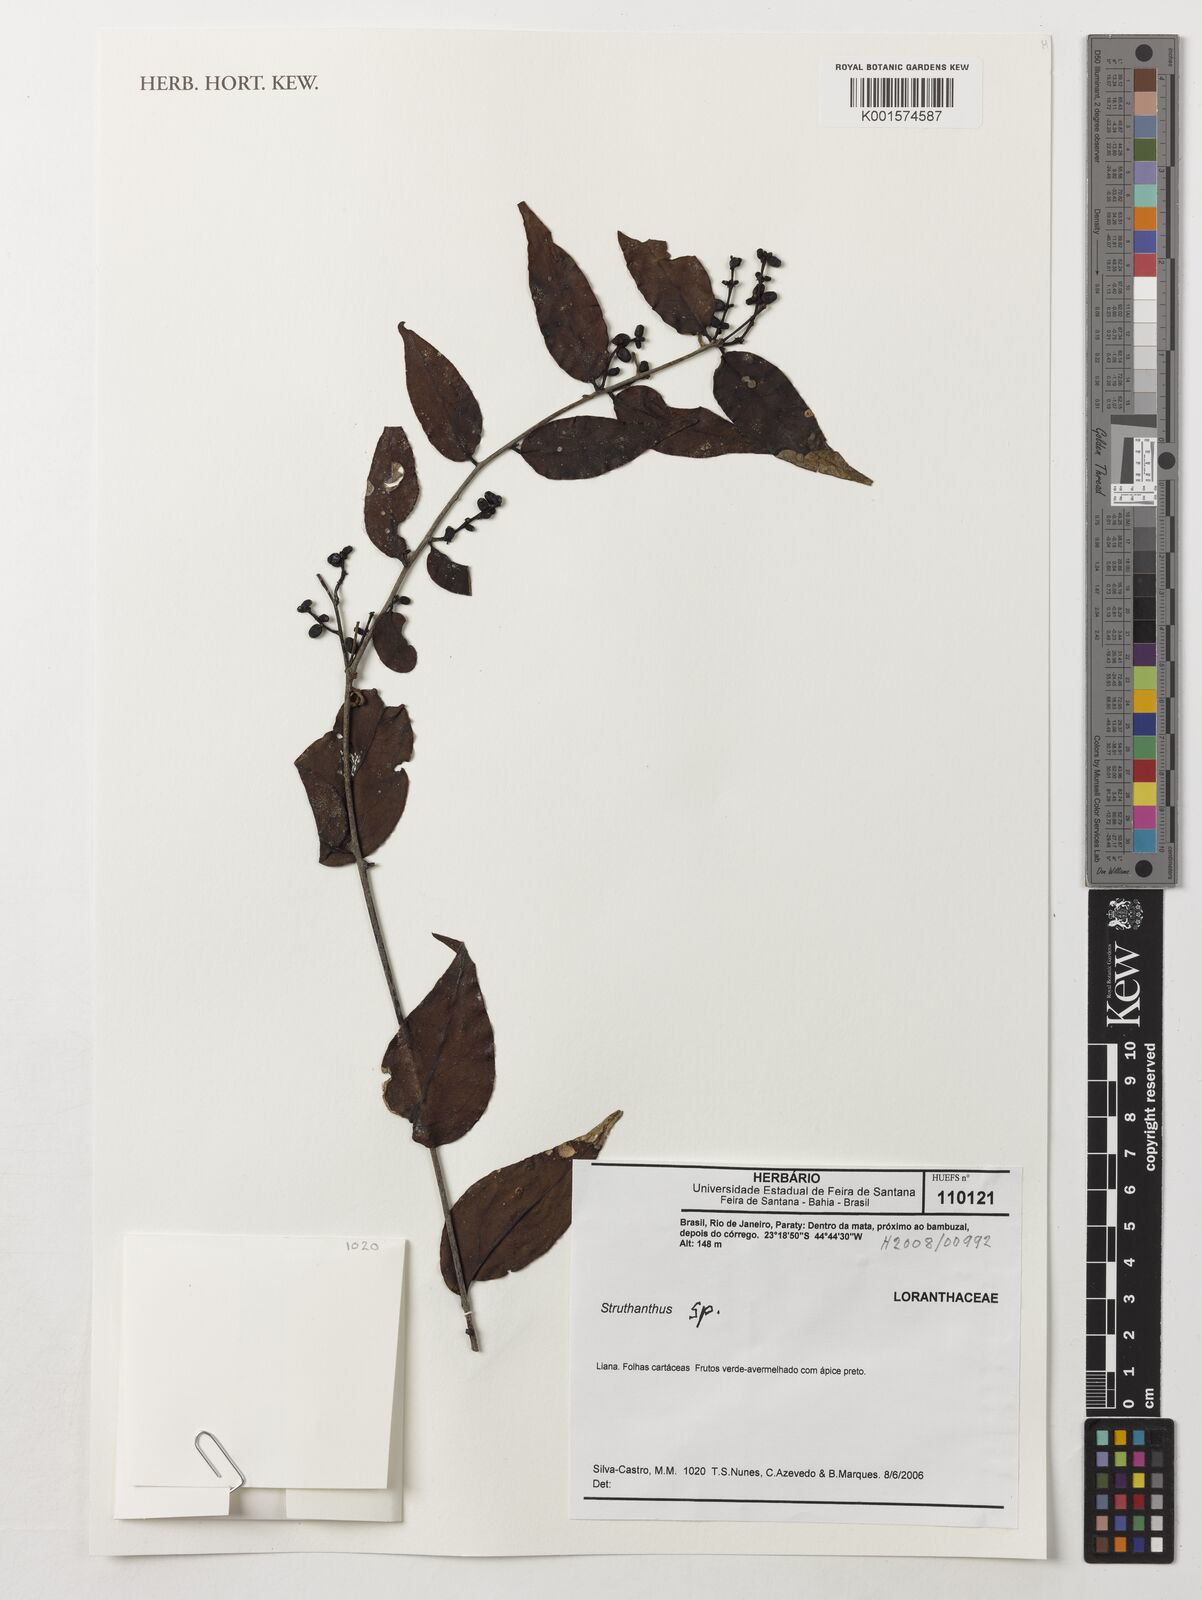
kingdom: Plantae
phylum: Tracheophyta
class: Magnoliopsida
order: Santalales
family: Loranthaceae
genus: Struthanthus
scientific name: Struthanthus
